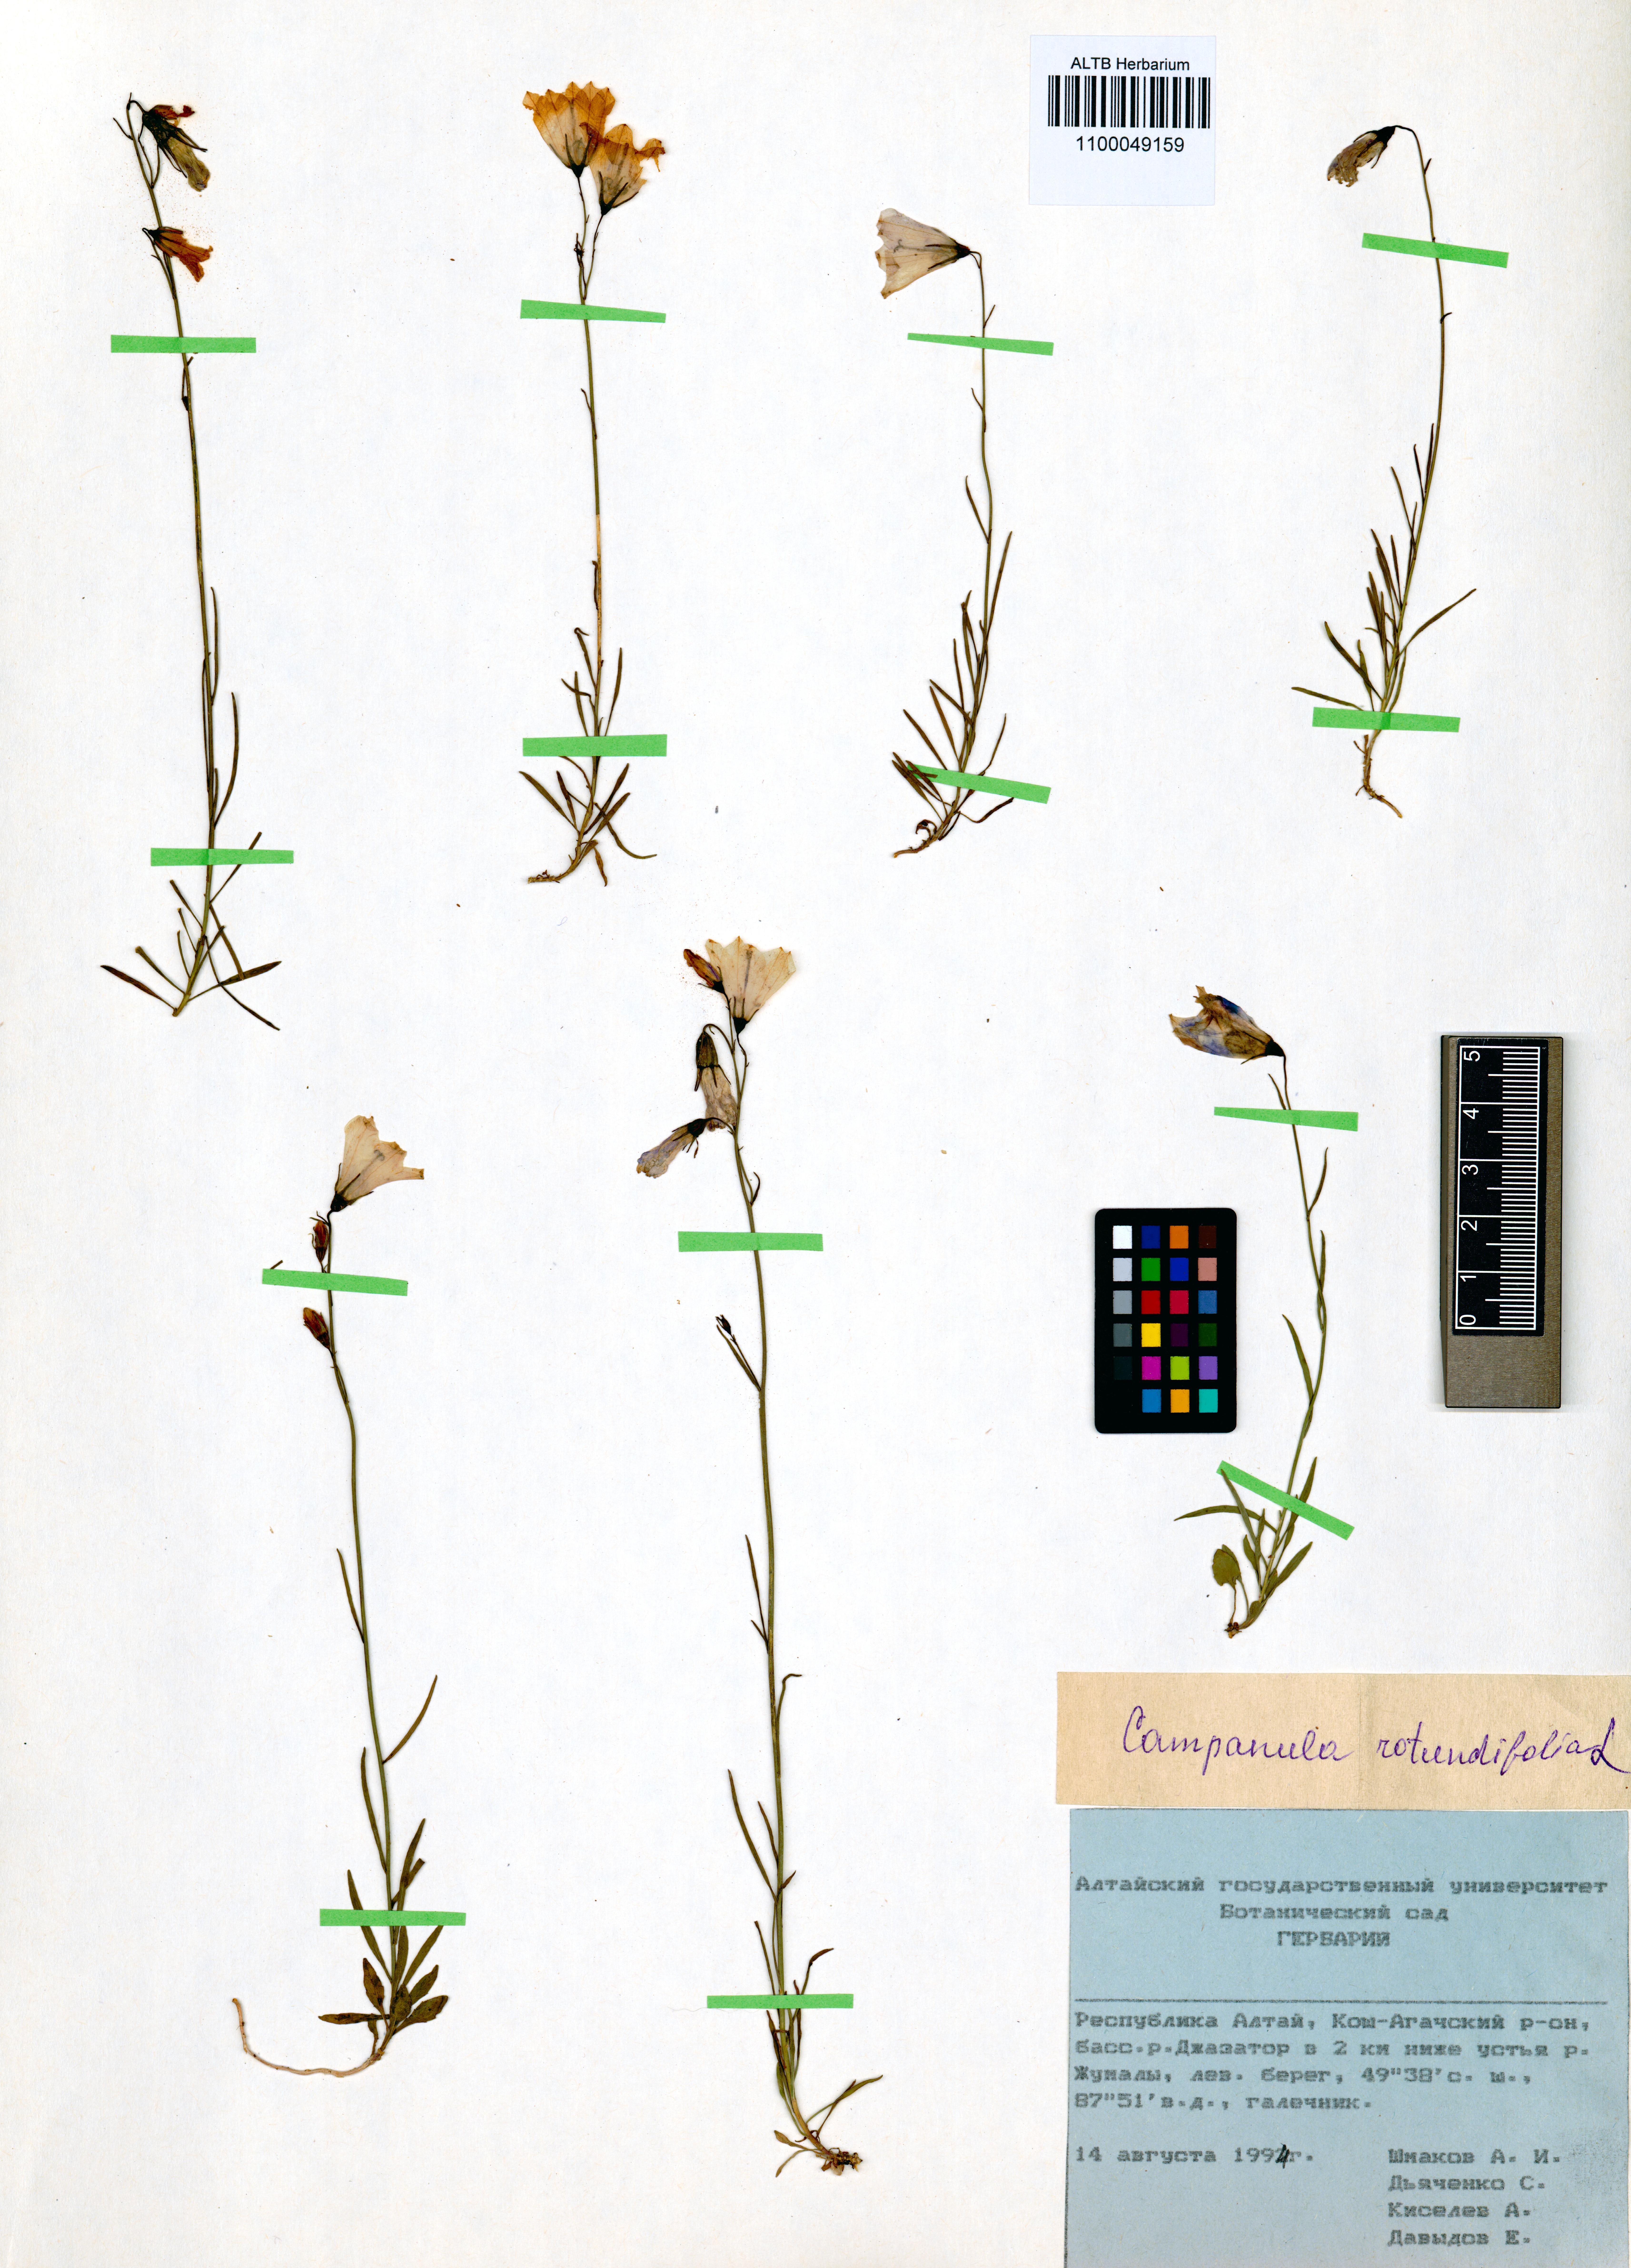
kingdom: Plantae
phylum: Tracheophyta
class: Magnoliopsida
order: Asterales
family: Campanulaceae
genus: Campanula
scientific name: Campanula rotundifolia
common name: Harebell
